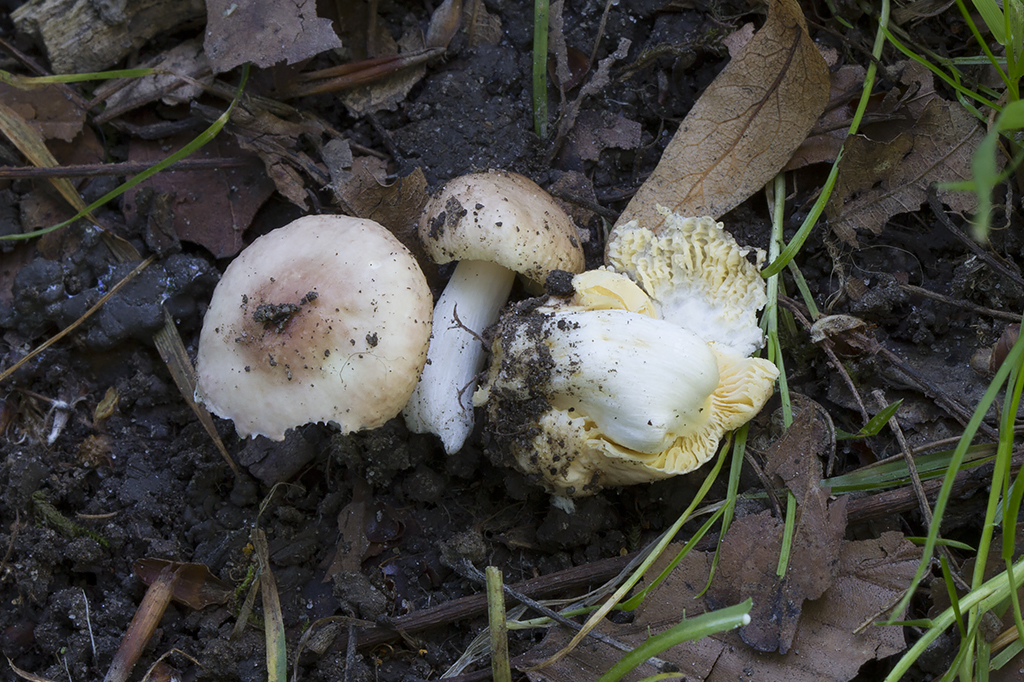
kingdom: Fungi
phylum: Basidiomycota
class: Agaricomycetes
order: Russulales
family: Russulaceae
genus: Russula
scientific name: Russula odorata
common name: duft-skørhat
